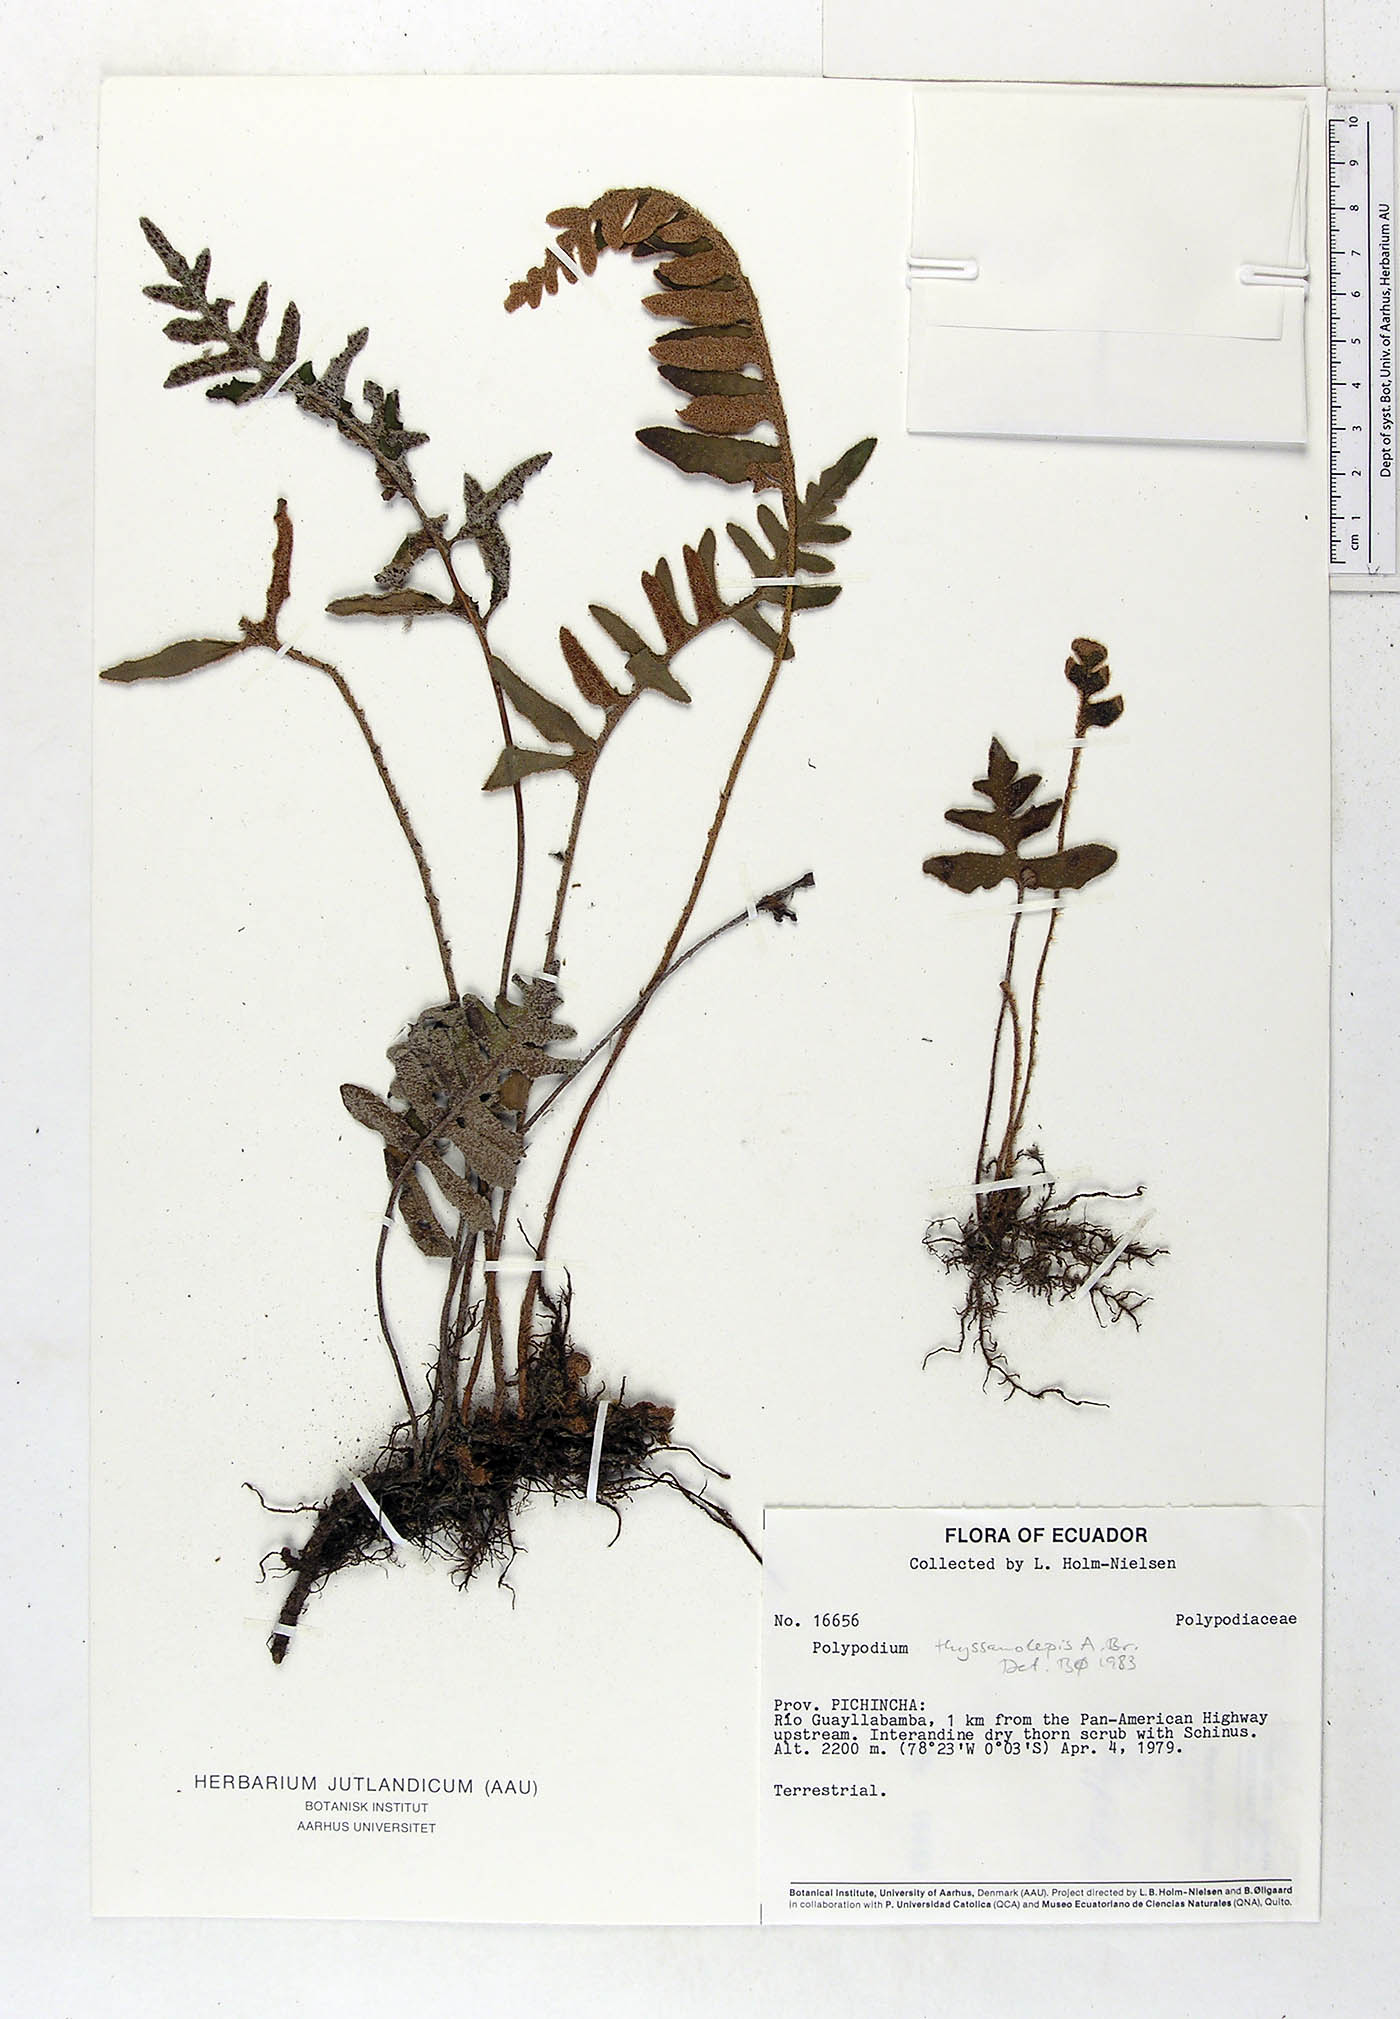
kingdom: Plantae
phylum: Tracheophyta
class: Polypodiopsida
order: Polypodiales
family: Polypodiaceae
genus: Pleopeltis
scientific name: Pleopeltis thyssanolepis
